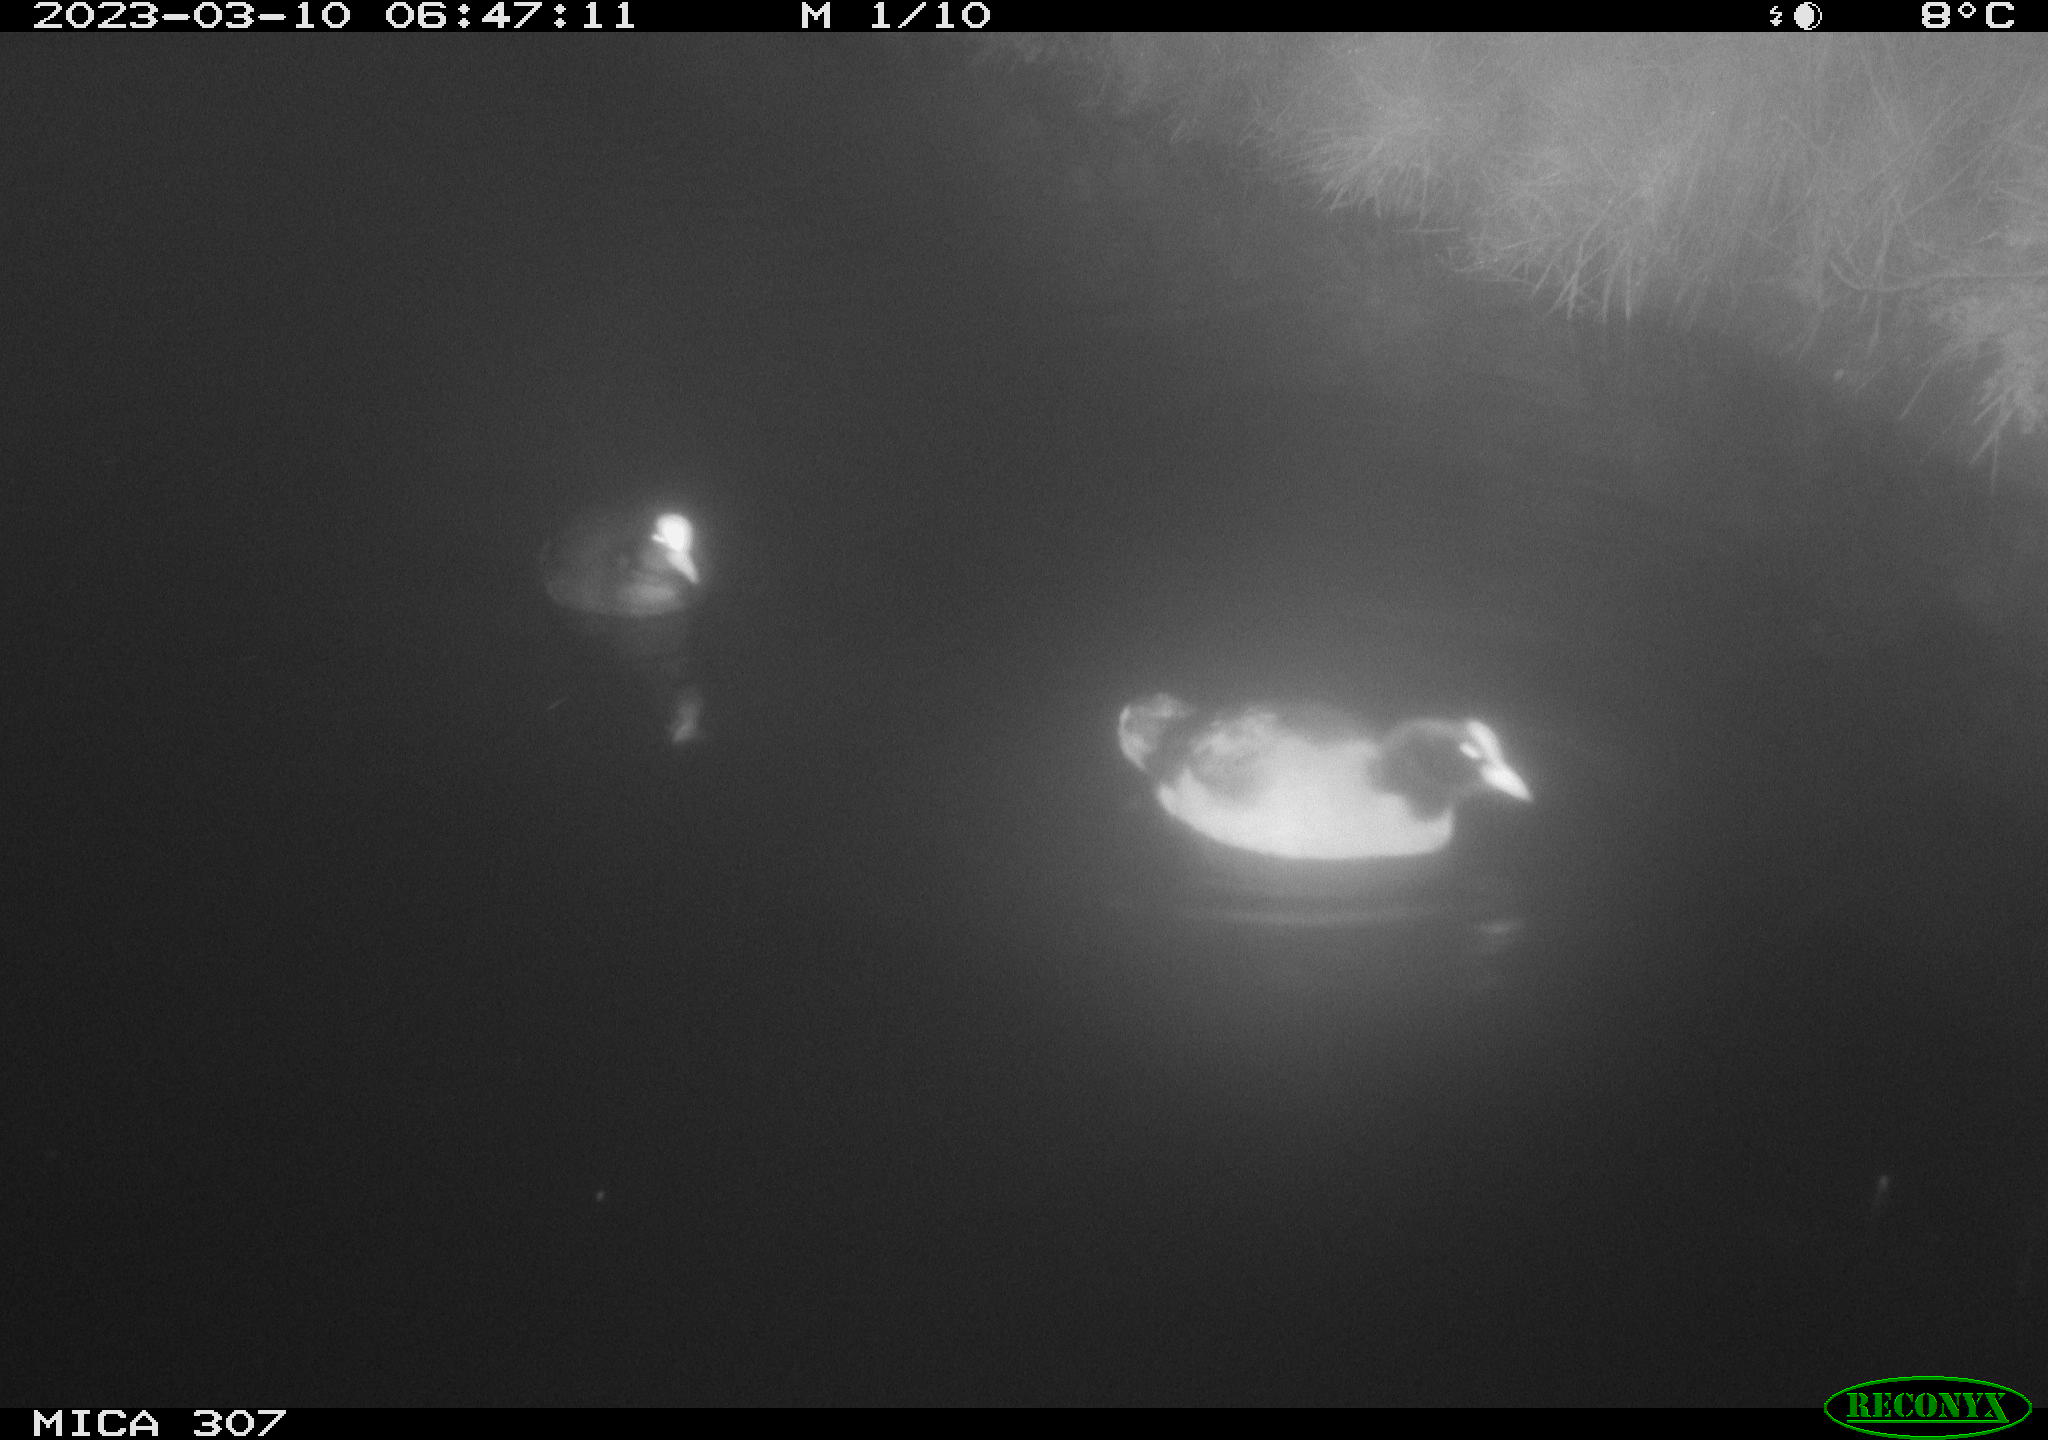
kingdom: Animalia
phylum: Chordata
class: Aves
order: Gruiformes
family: Rallidae
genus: Fulica
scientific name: Fulica atra
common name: Eurasian coot
